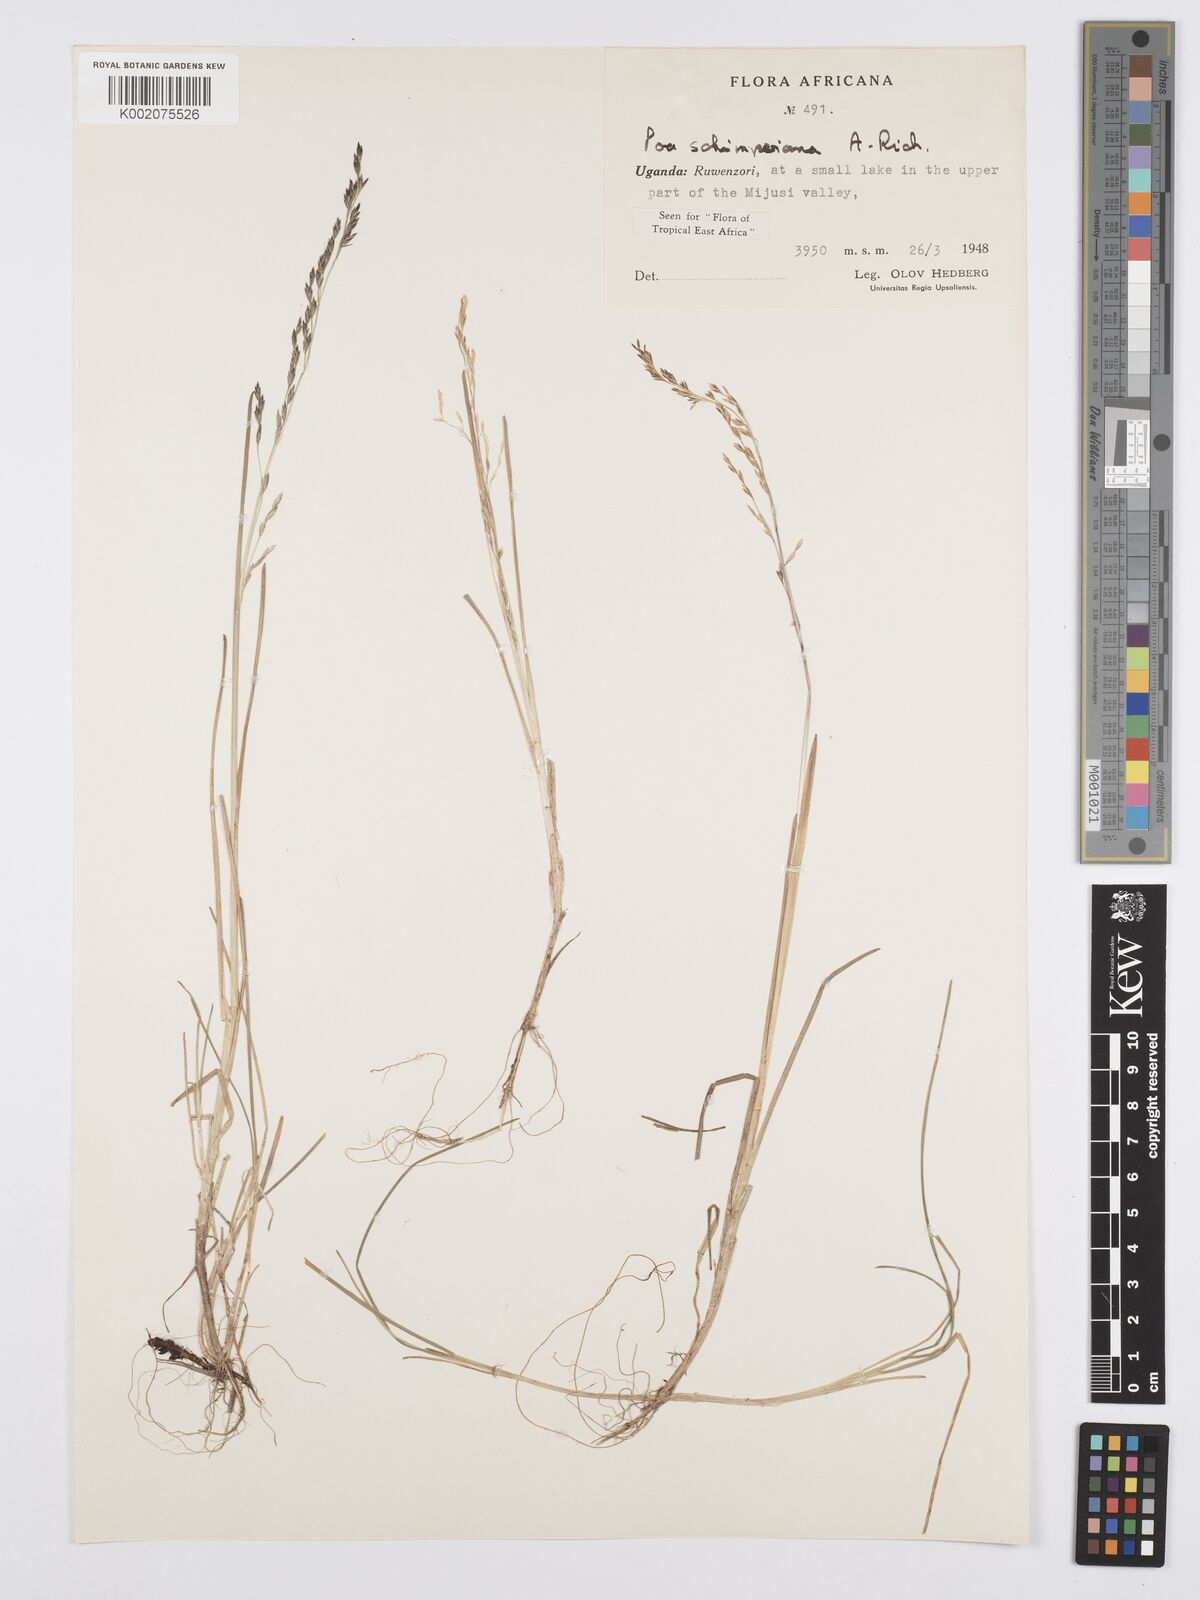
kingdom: Plantae
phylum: Tracheophyta
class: Liliopsida
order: Poales
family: Poaceae
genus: Poa
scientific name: Poa schimperiana
